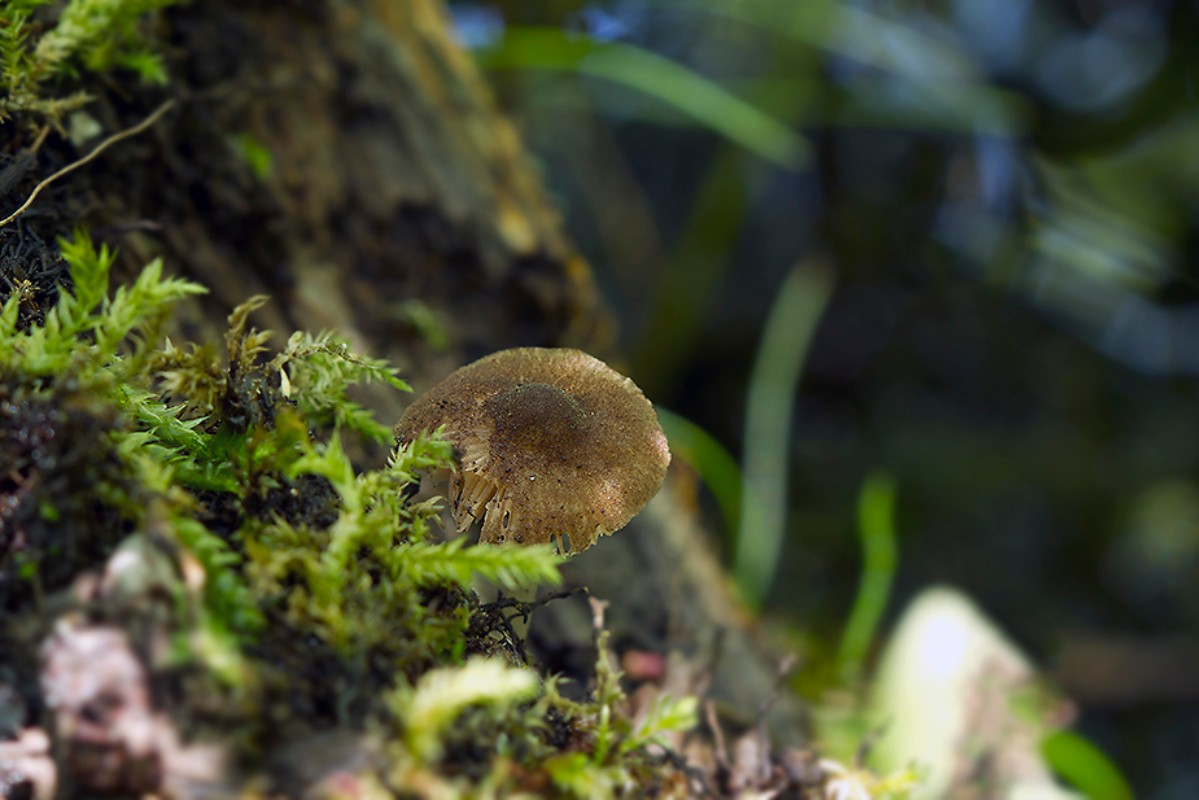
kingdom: Fungi
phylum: Basidiomycota
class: Agaricomycetes
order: Agaricales
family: Pluteaceae
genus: Pluteus
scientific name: Pluteus podospileus
